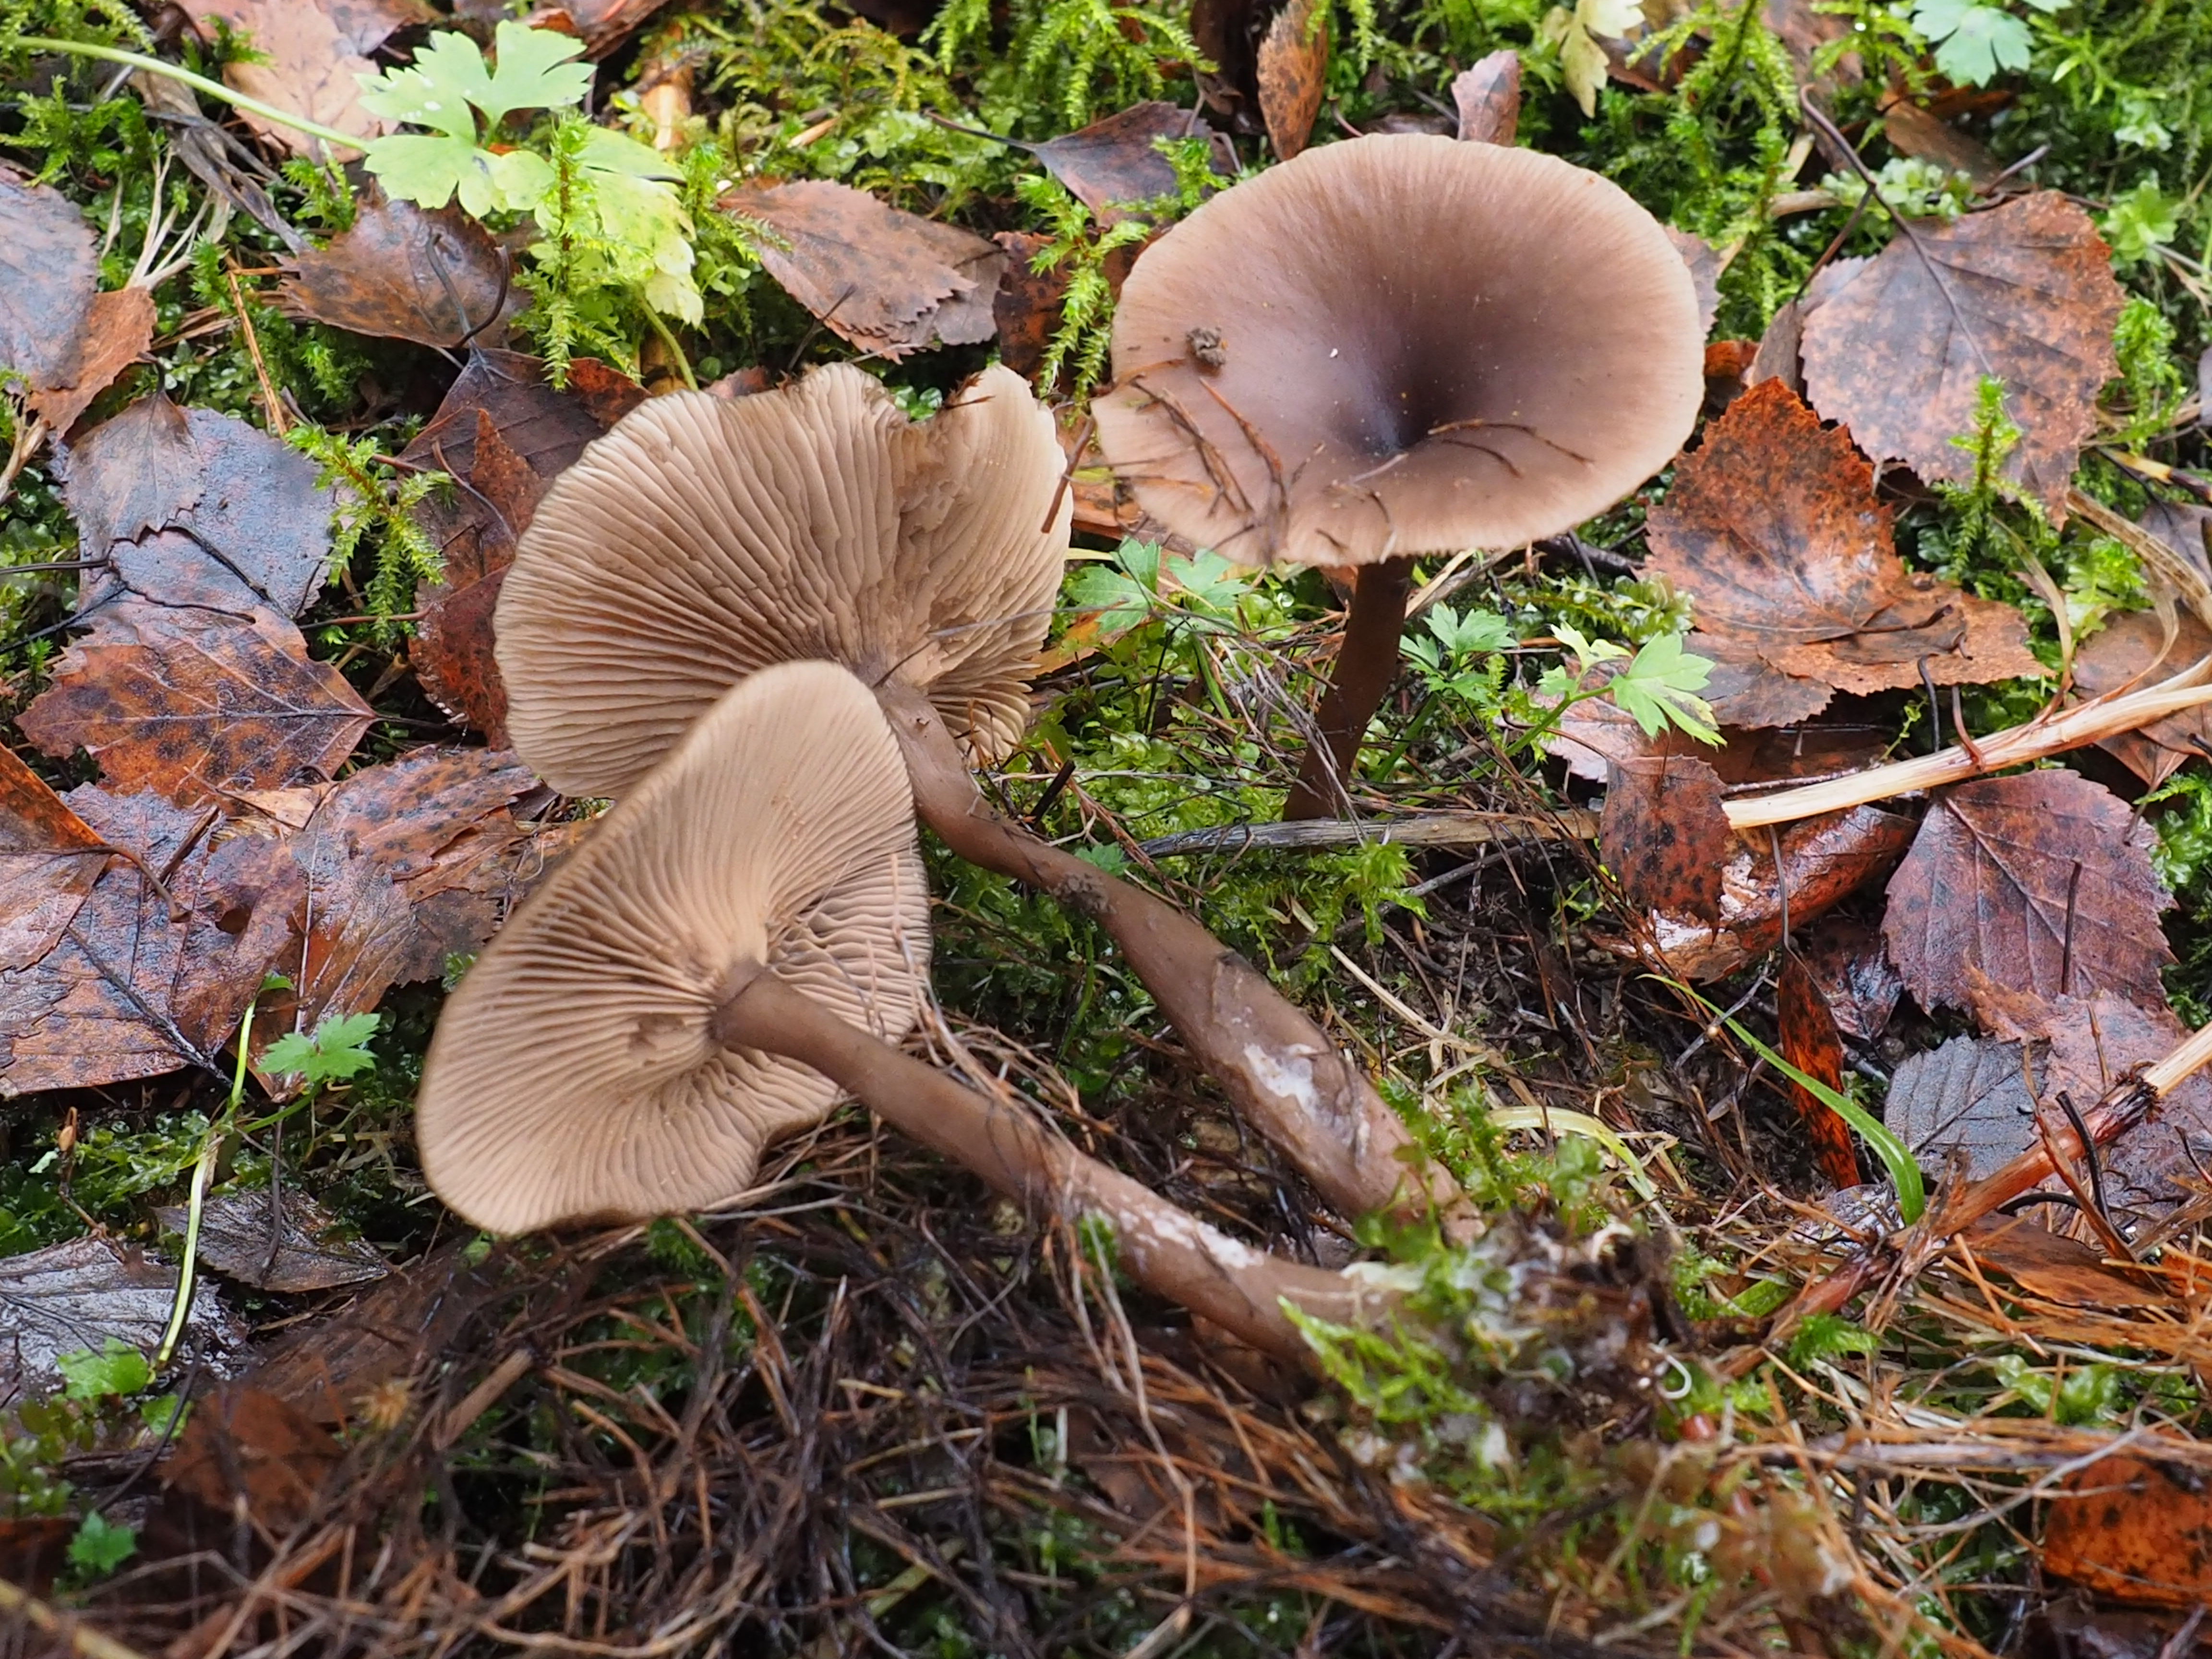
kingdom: Fungi
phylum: Basidiomycota
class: Agaricomycetes
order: Agaricales
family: Pseudoclitocybaceae
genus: Pseudoclitocybe
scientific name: Pseudoclitocybe cyathiformis
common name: Goblet
